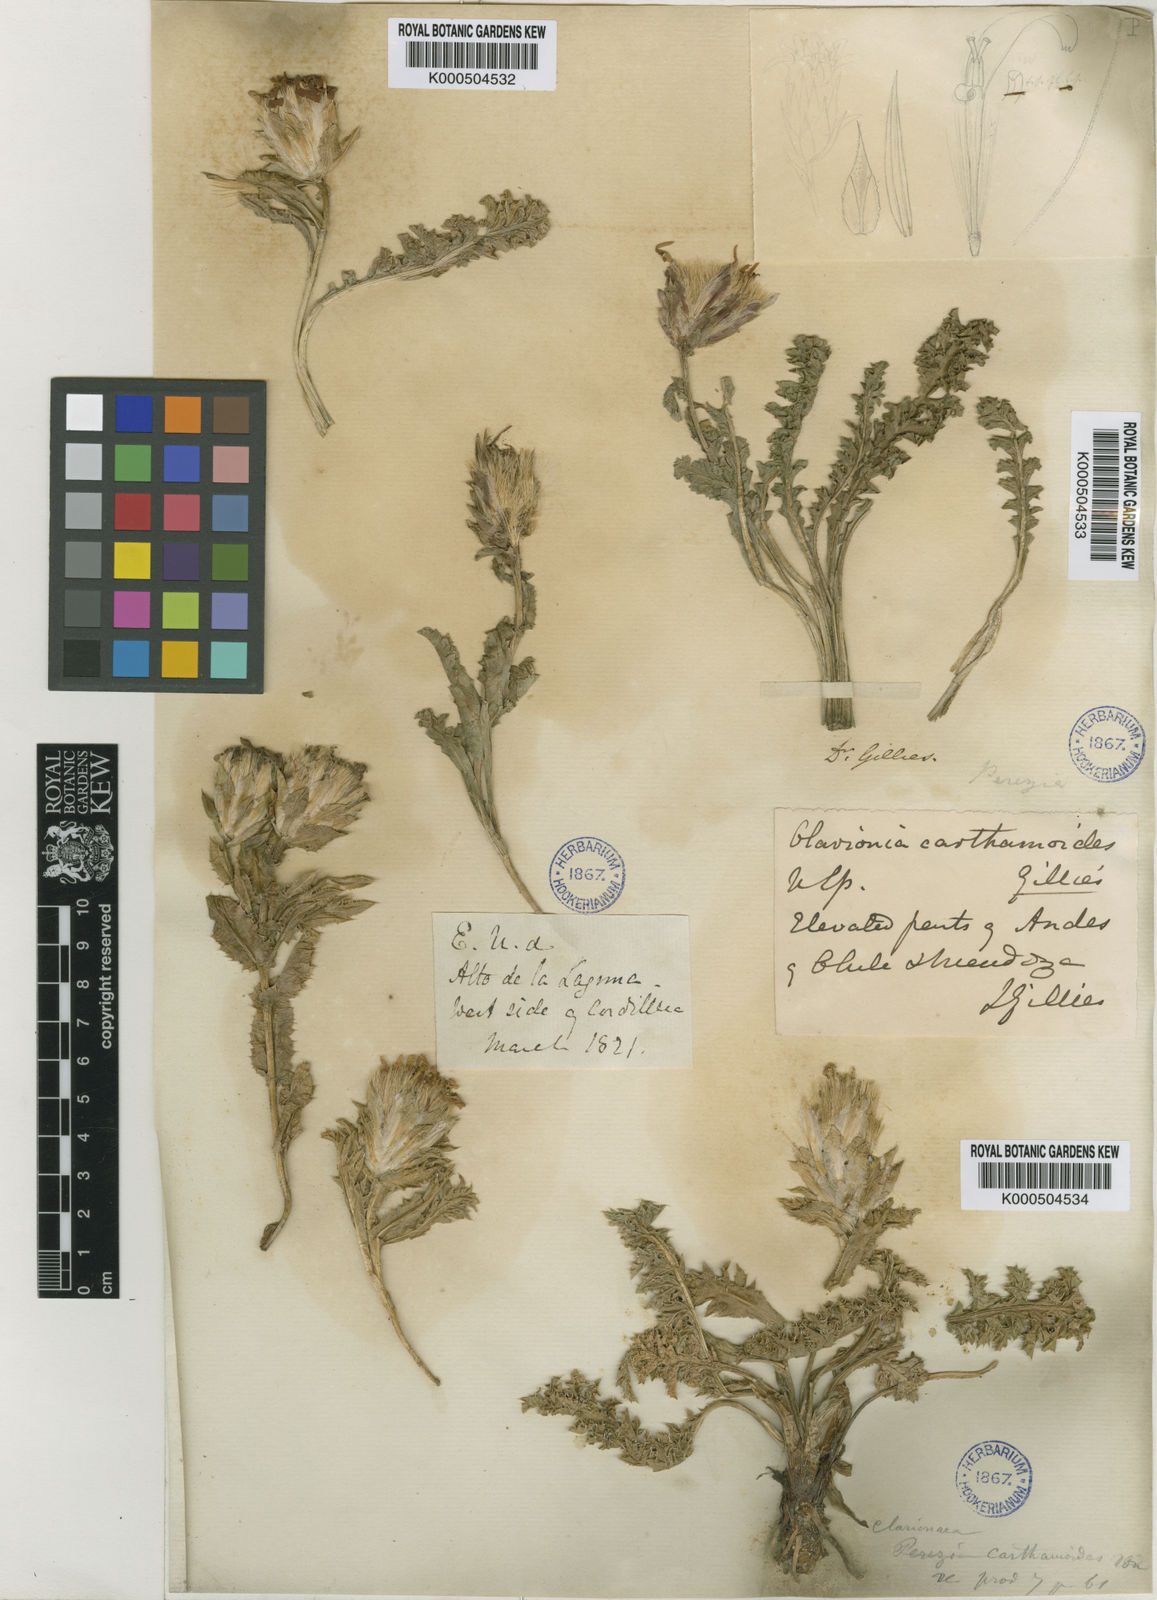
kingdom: Plantae
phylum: Tracheophyta
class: Magnoliopsida
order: Asterales
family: Asteraceae
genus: Perezia
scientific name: Perezia carthamoides
